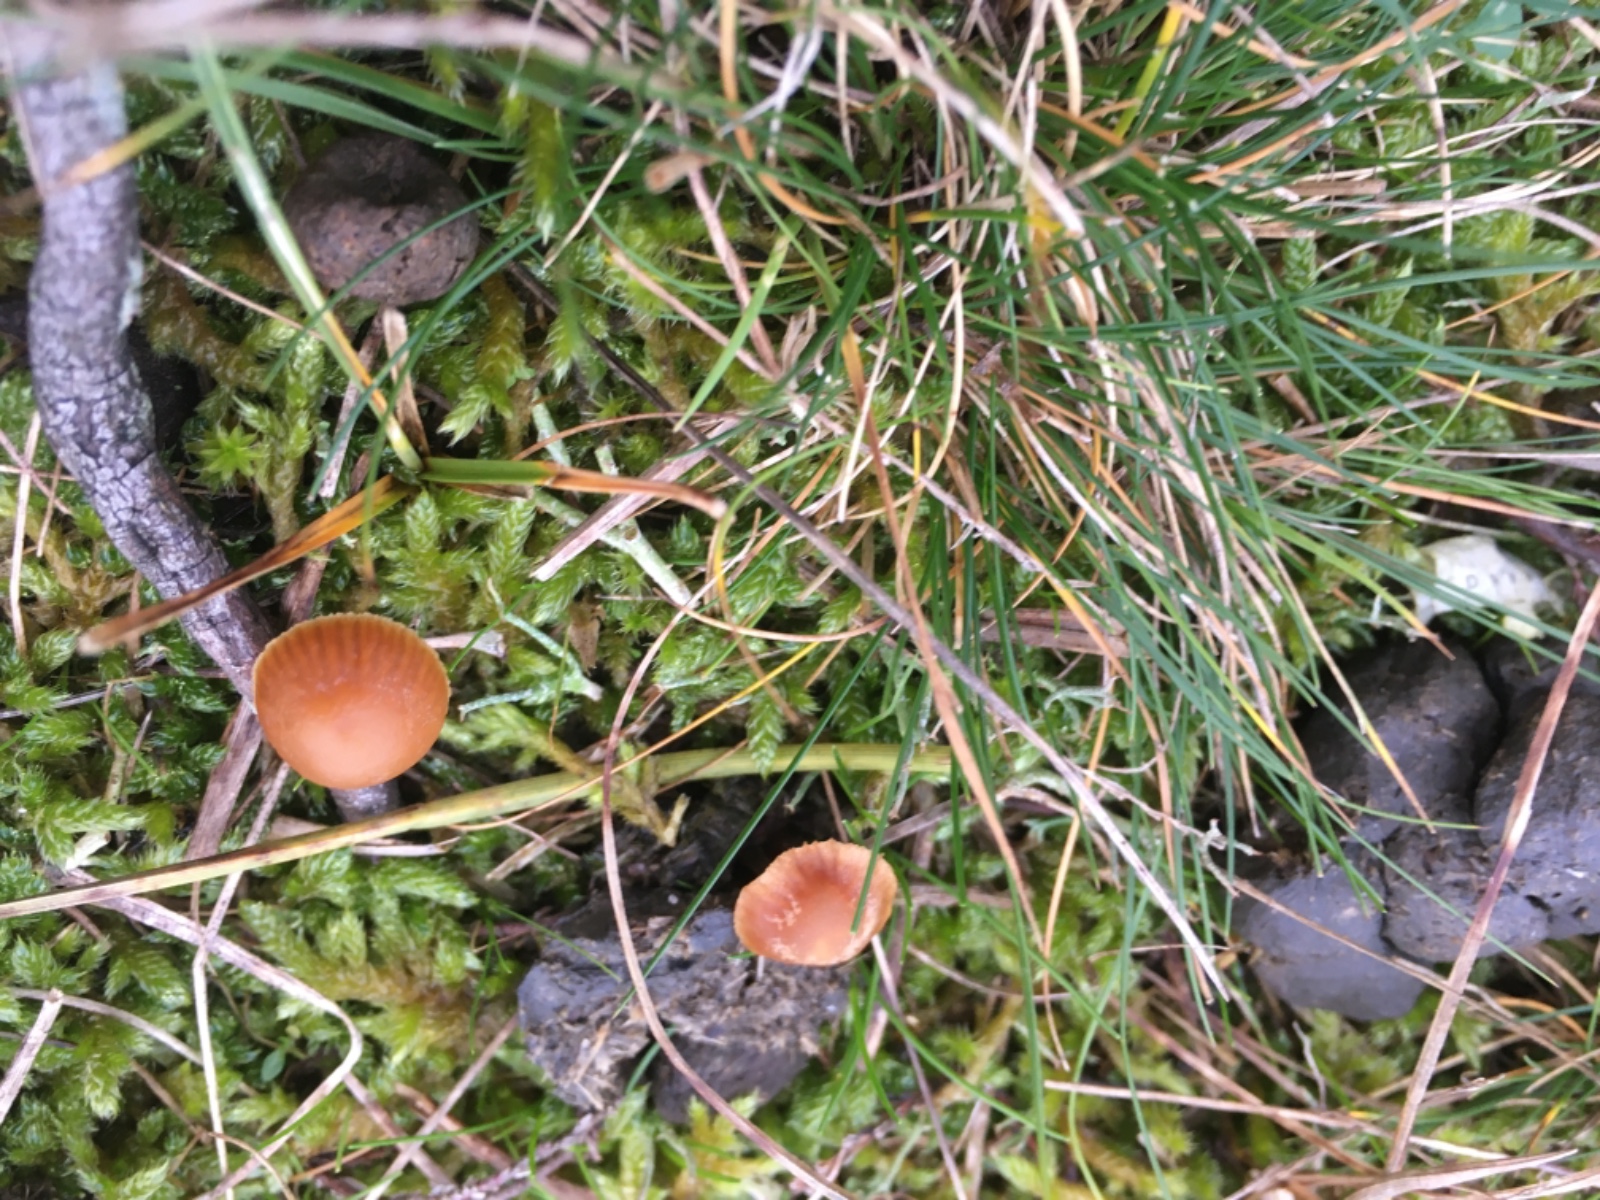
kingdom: Fungi
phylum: Basidiomycota
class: Agaricomycetes
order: Agaricales
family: Hymenogastraceae
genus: Galerina
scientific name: Galerina vittiformis
